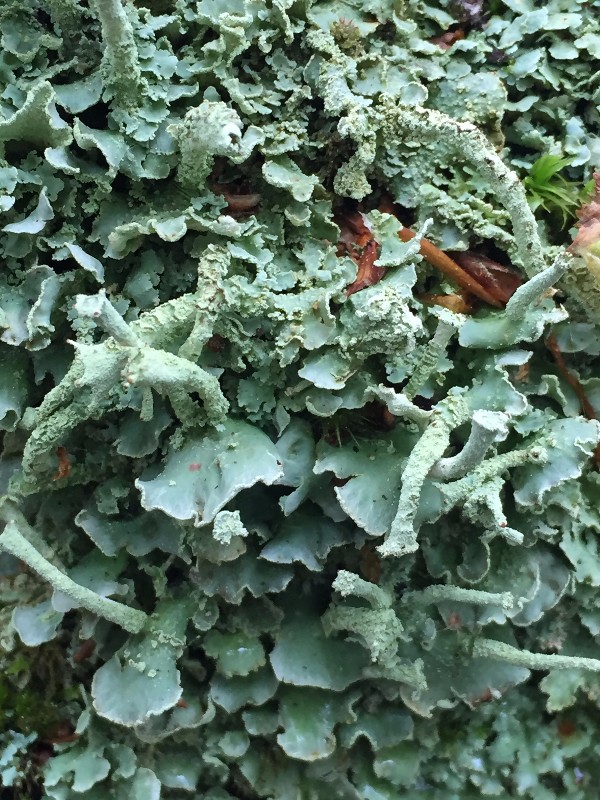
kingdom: Fungi
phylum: Ascomycota
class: Lecanoromycetes
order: Lecanorales
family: Cladoniaceae
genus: Cladonia
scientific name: Cladonia digitata
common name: finger-bægerlav
